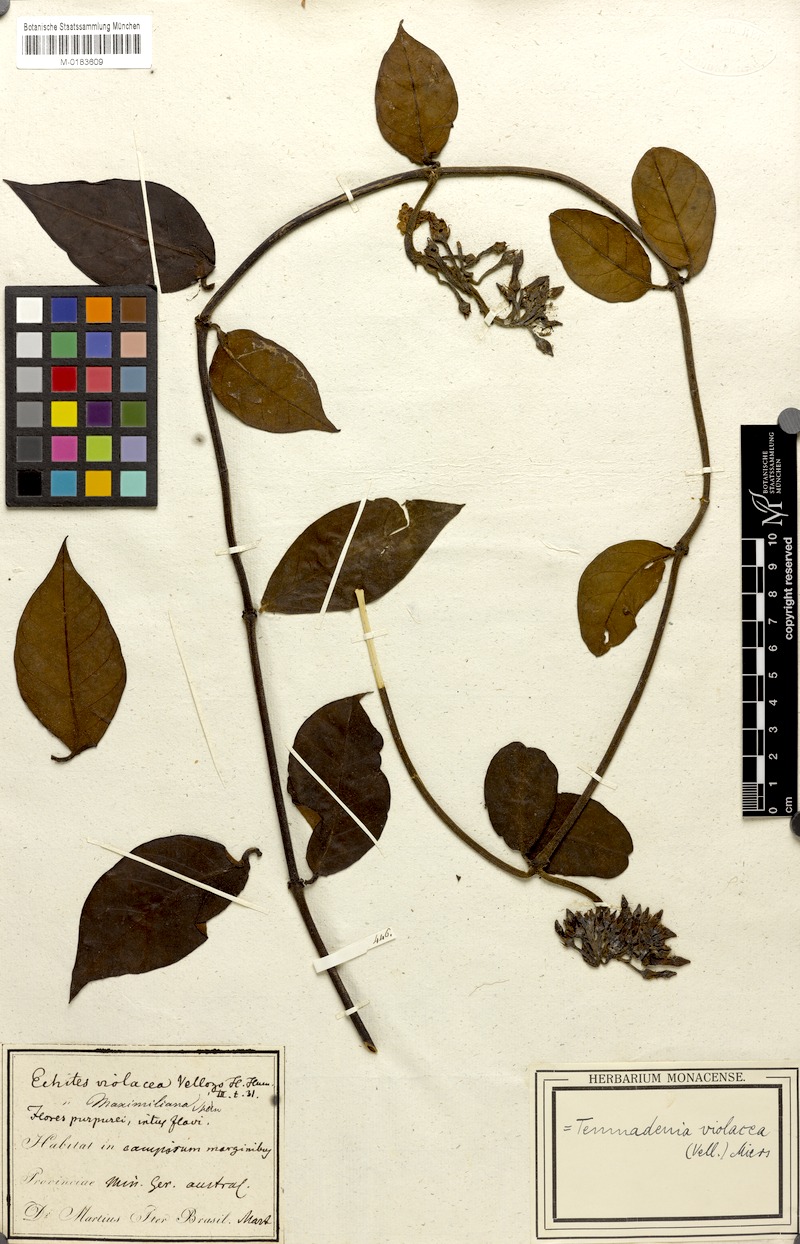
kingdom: Plantae
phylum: Tracheophyta
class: Magnoliopsida
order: Gentianales
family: Apocynaceae
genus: Temnadenia
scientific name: Temnadenia violacea
